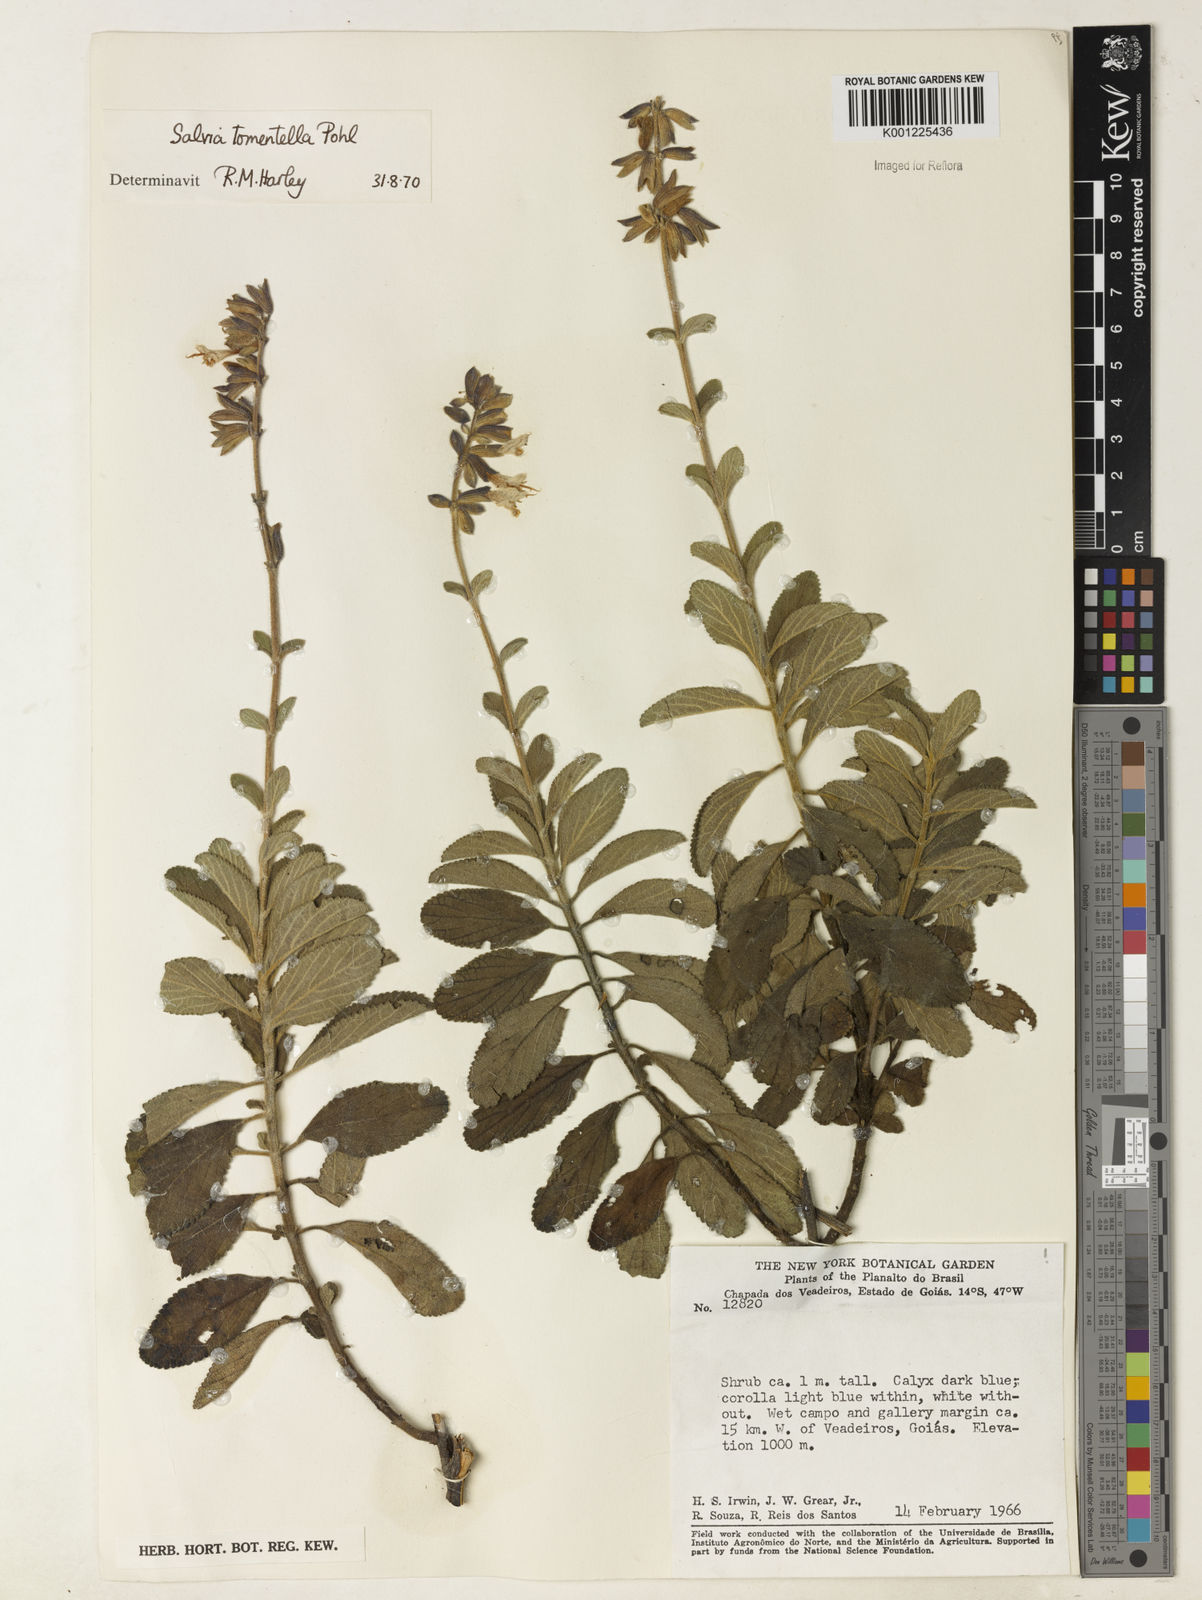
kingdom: Plantae
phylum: Tracheophyta
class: Magnoliopsida
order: Lamiales
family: Lamiaceae
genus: Salvia
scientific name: Salvia tomentella
